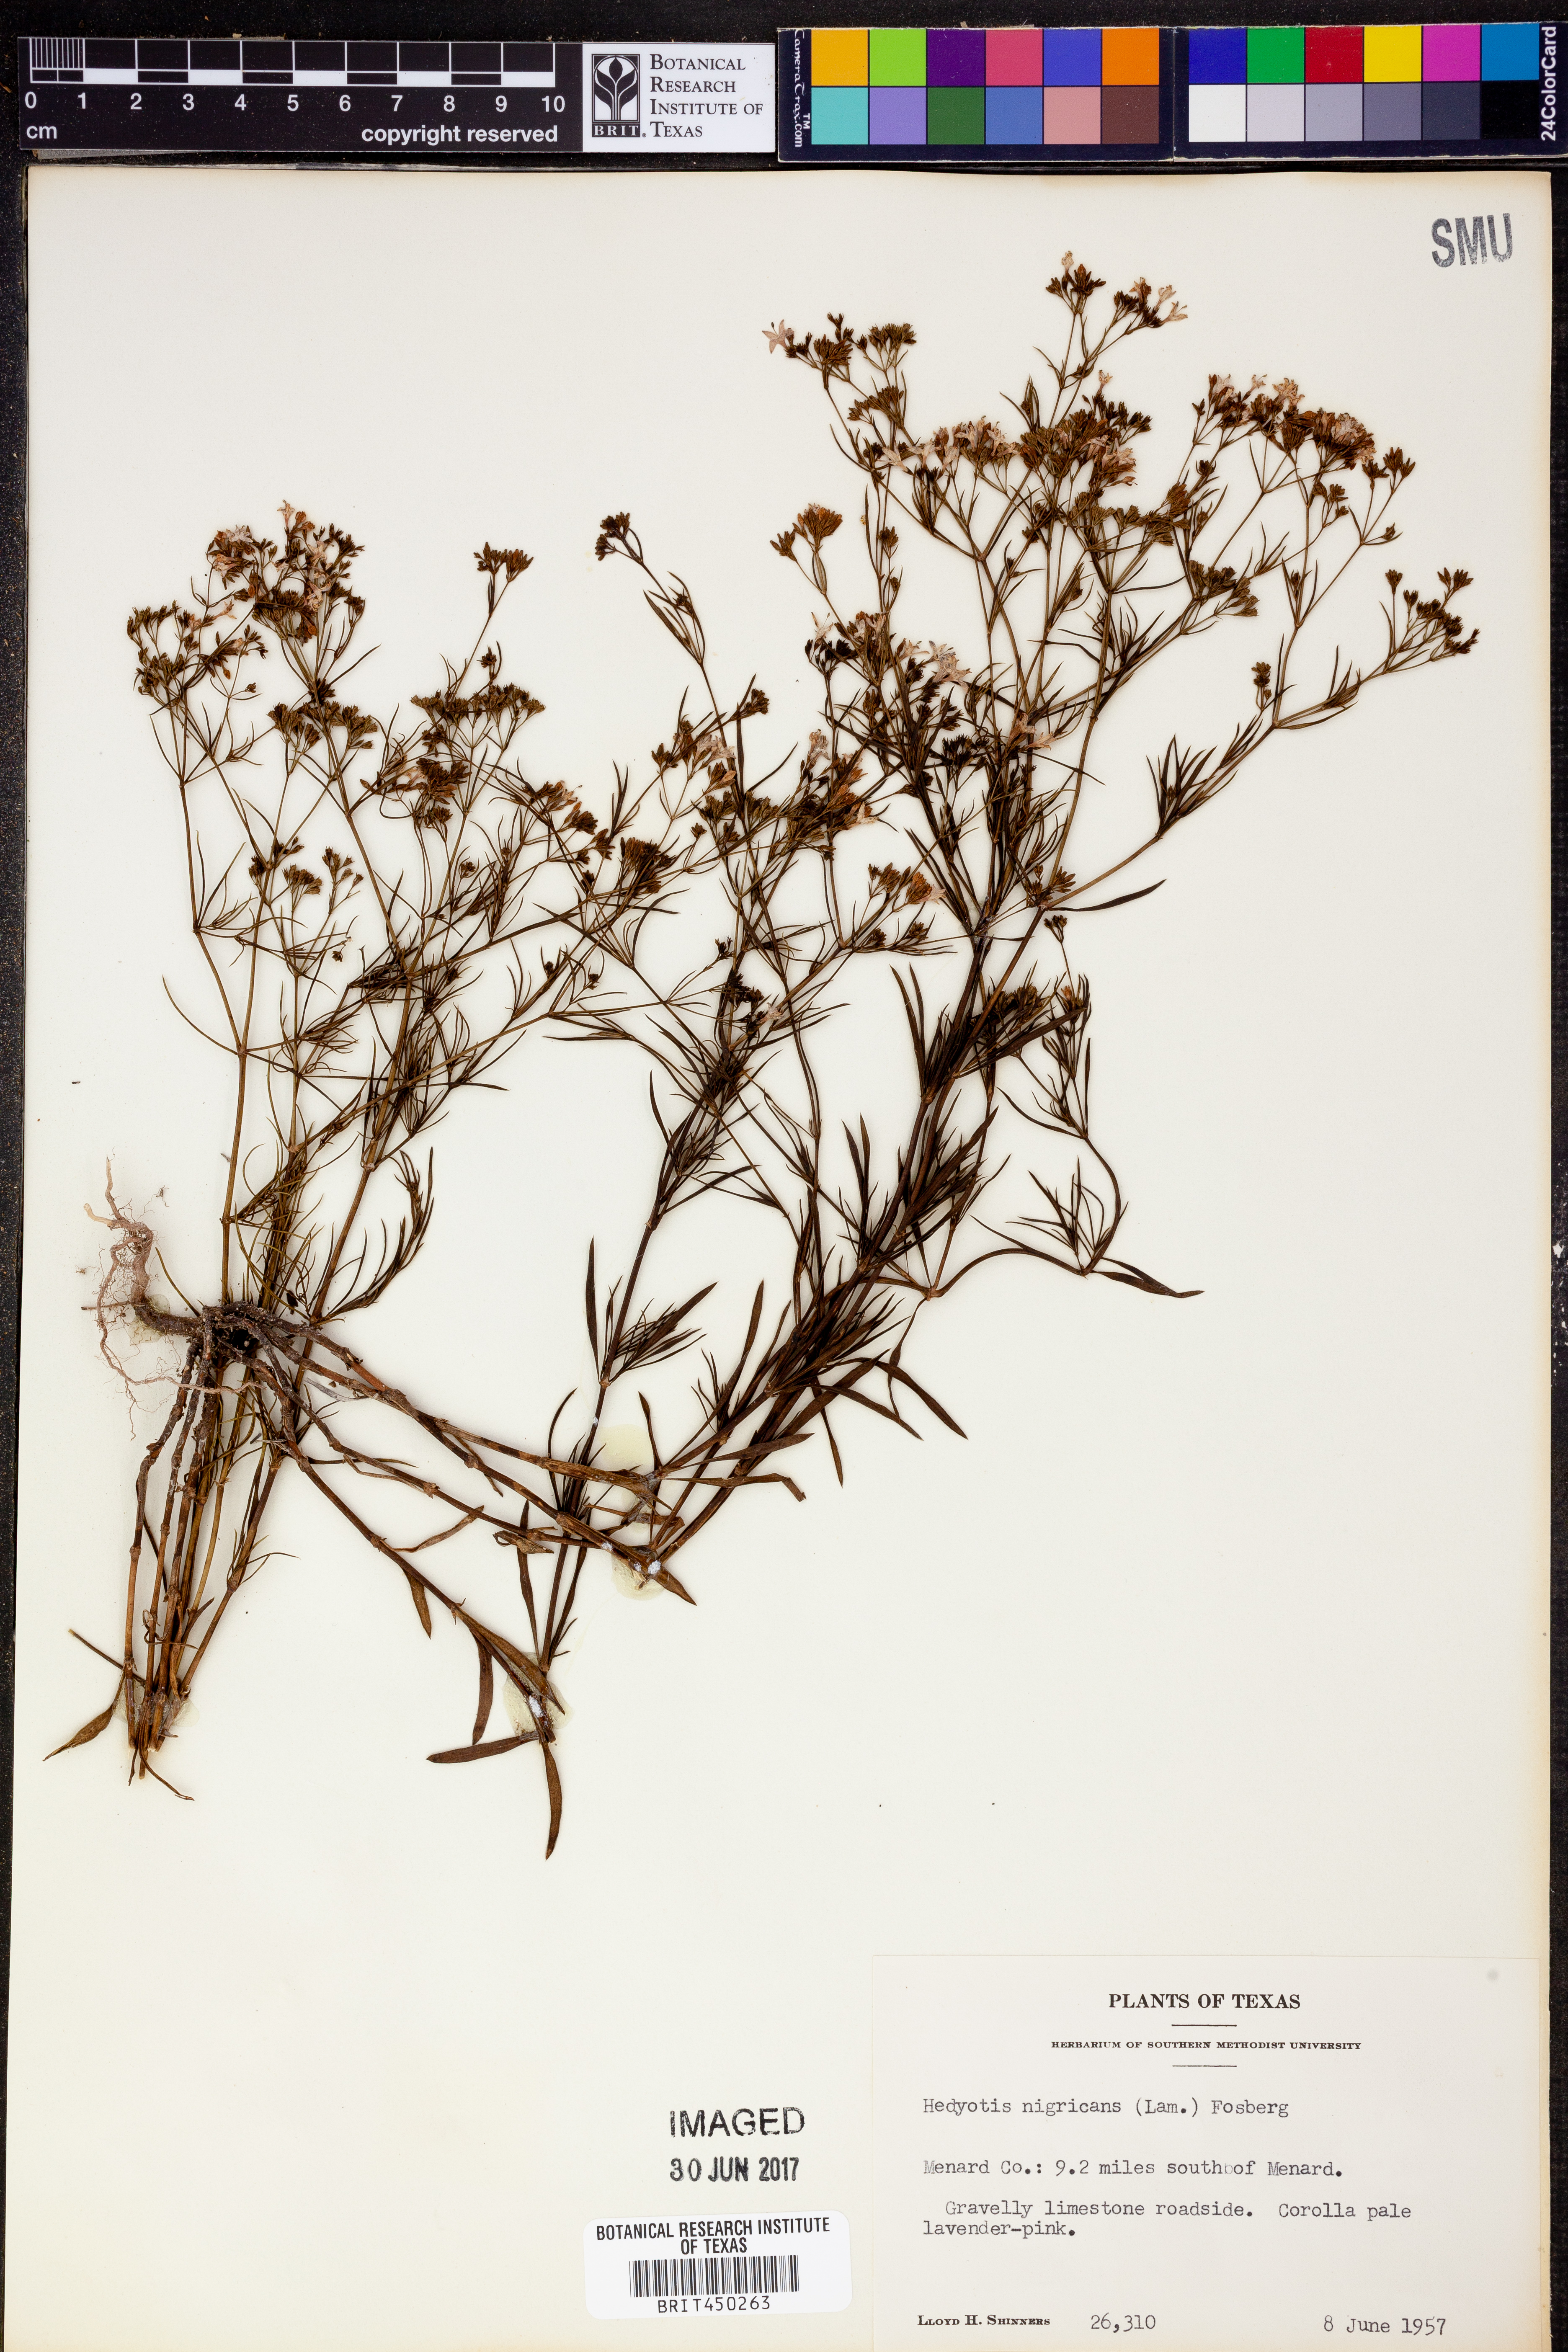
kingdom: Plantae
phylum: Tracheophyta
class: Magnoliopsida
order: Gentianales
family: Rubiaceae
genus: Stenaria
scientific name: Stenaria nigricans
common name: Diamondflowers
